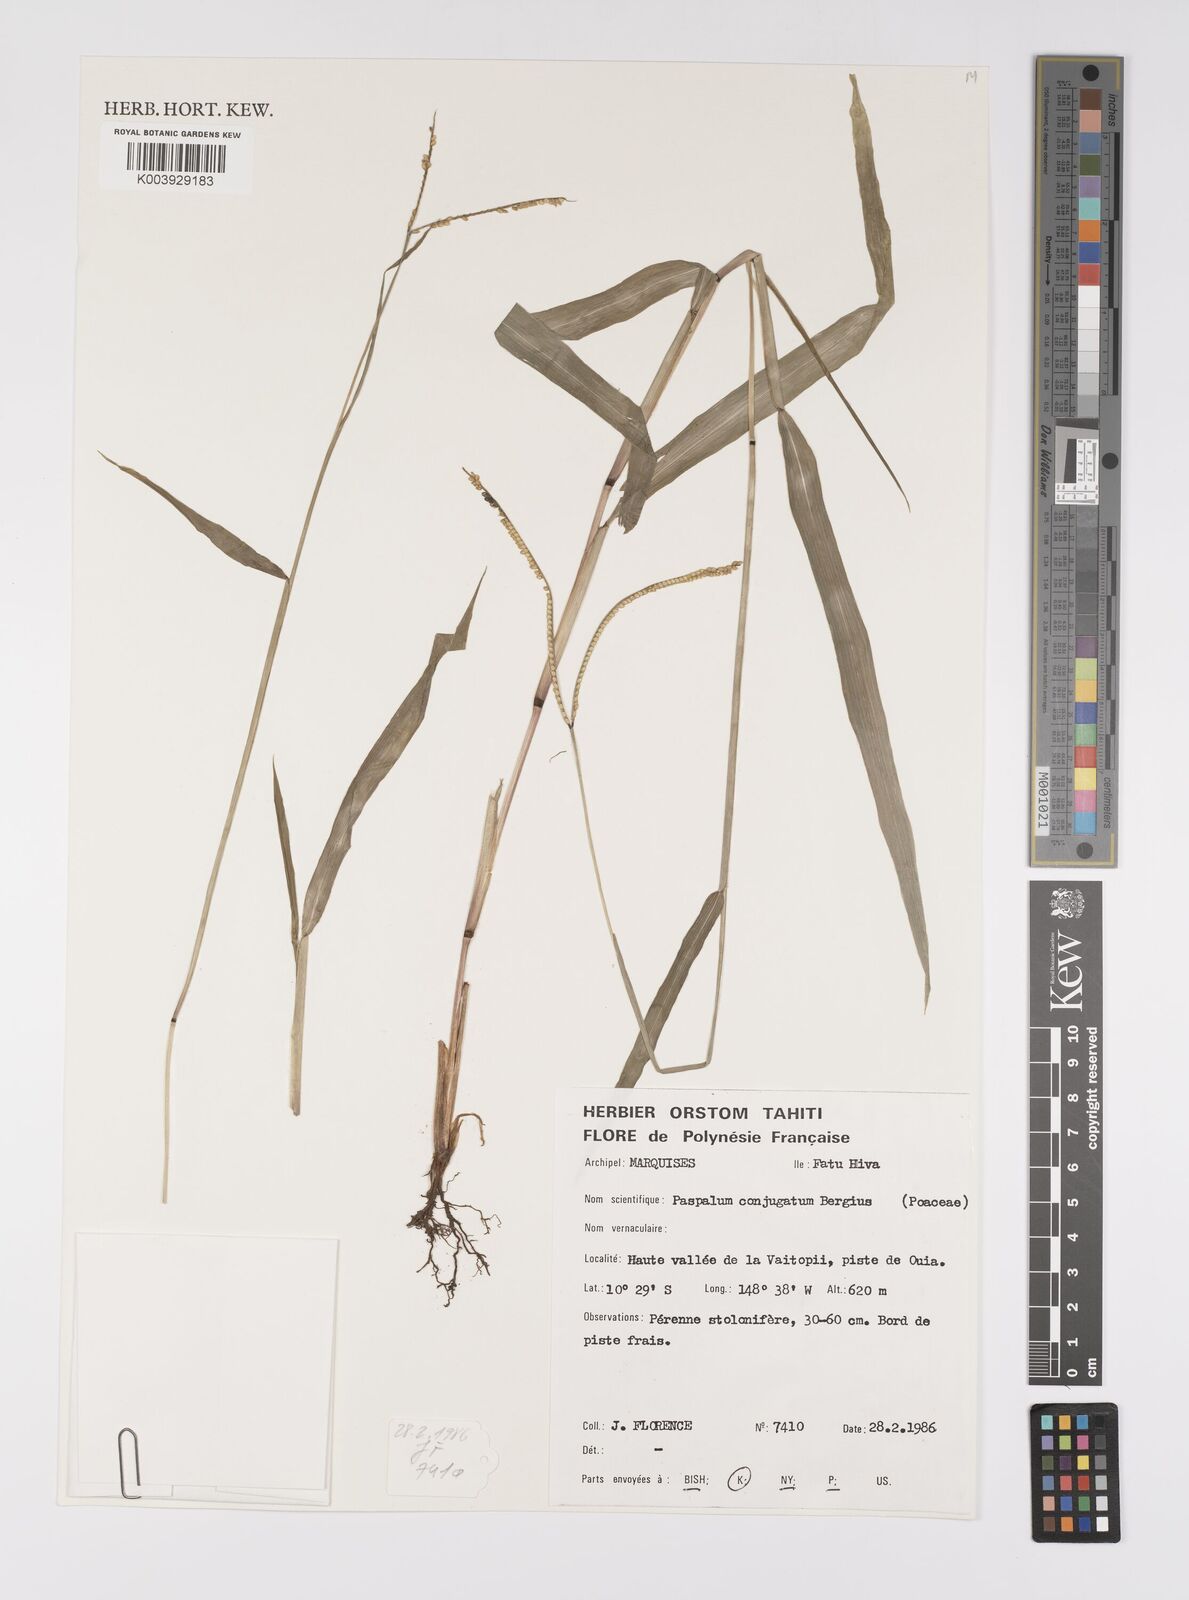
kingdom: Plantae
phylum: Tracheophyta
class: Liliopsida
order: Poales
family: Poaceae
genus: Paspalum
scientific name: Paspalum conjugatum
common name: Hilograss
